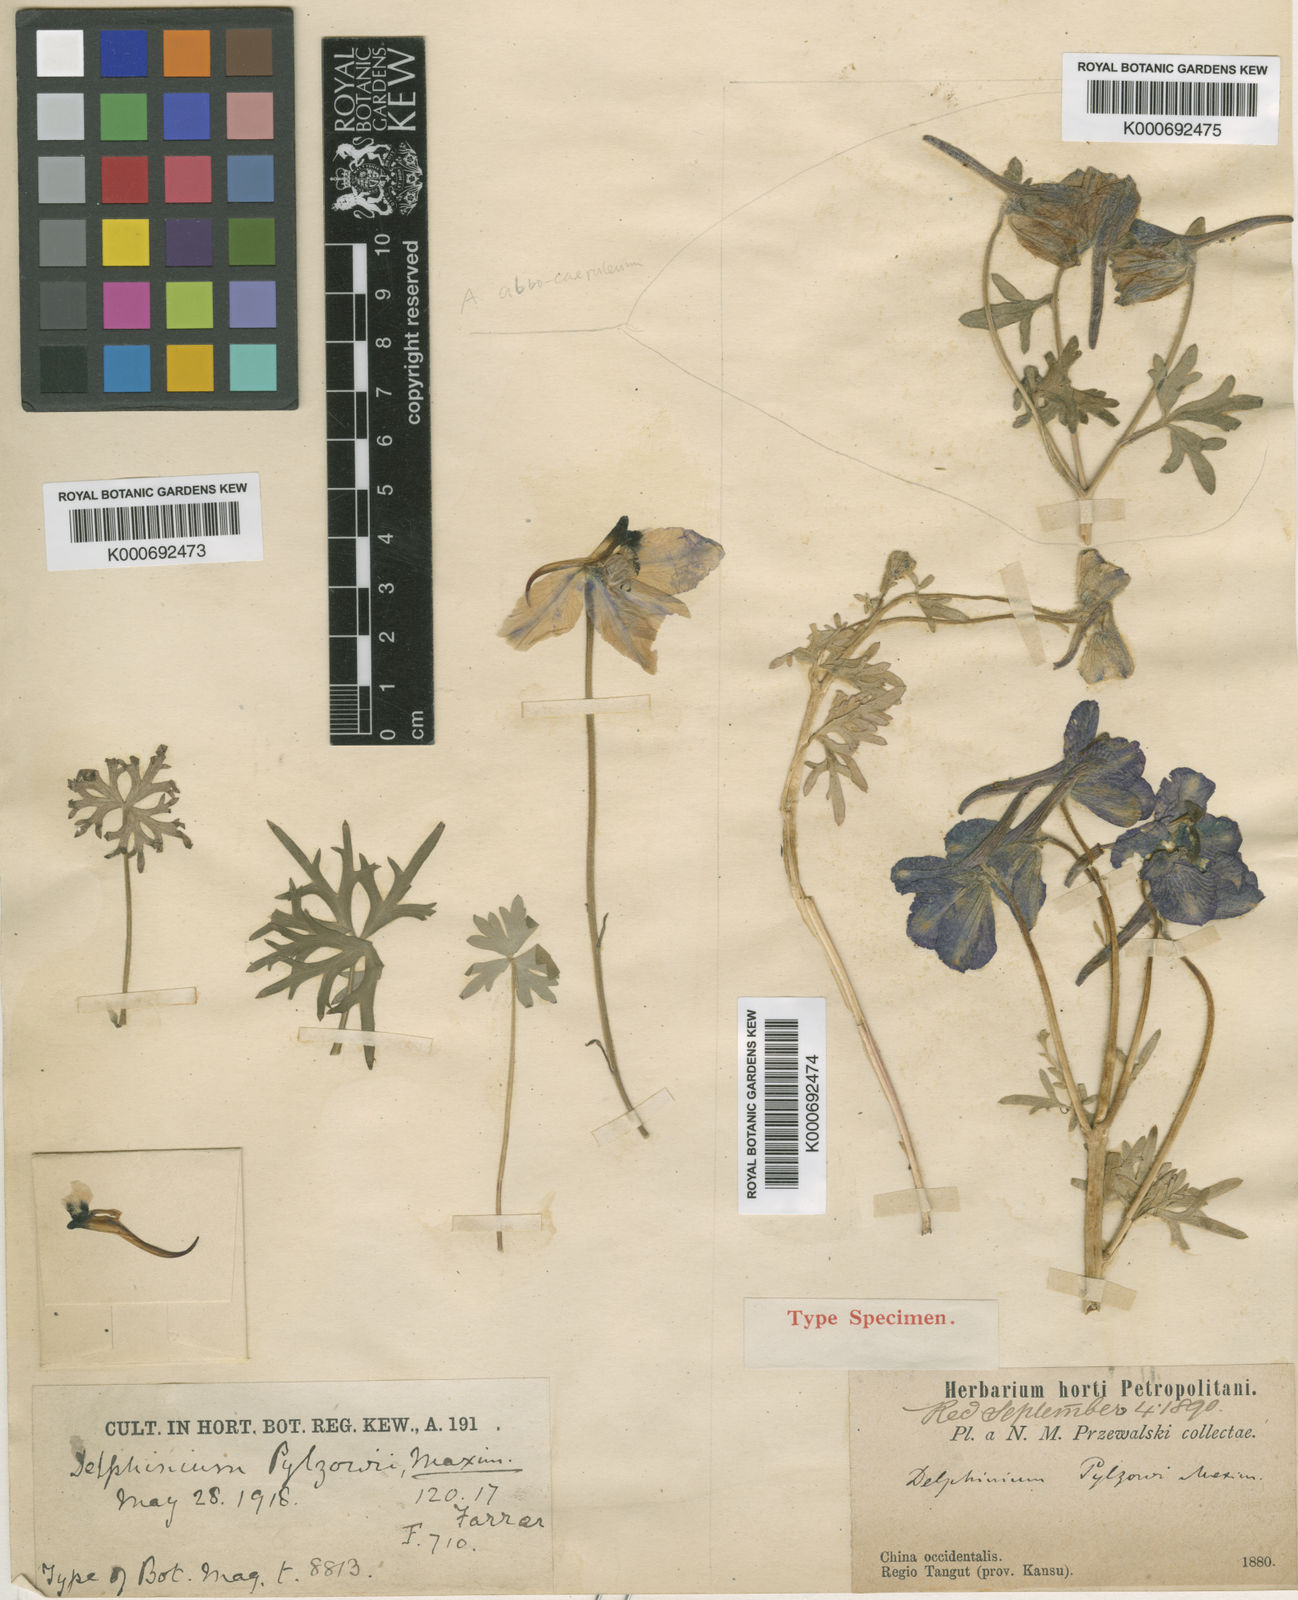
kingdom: Plantae
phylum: Tracheophyta
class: Magnoliopsida
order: Ranunculales
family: Ranunculaceae
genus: Delphinium
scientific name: Delphinium
